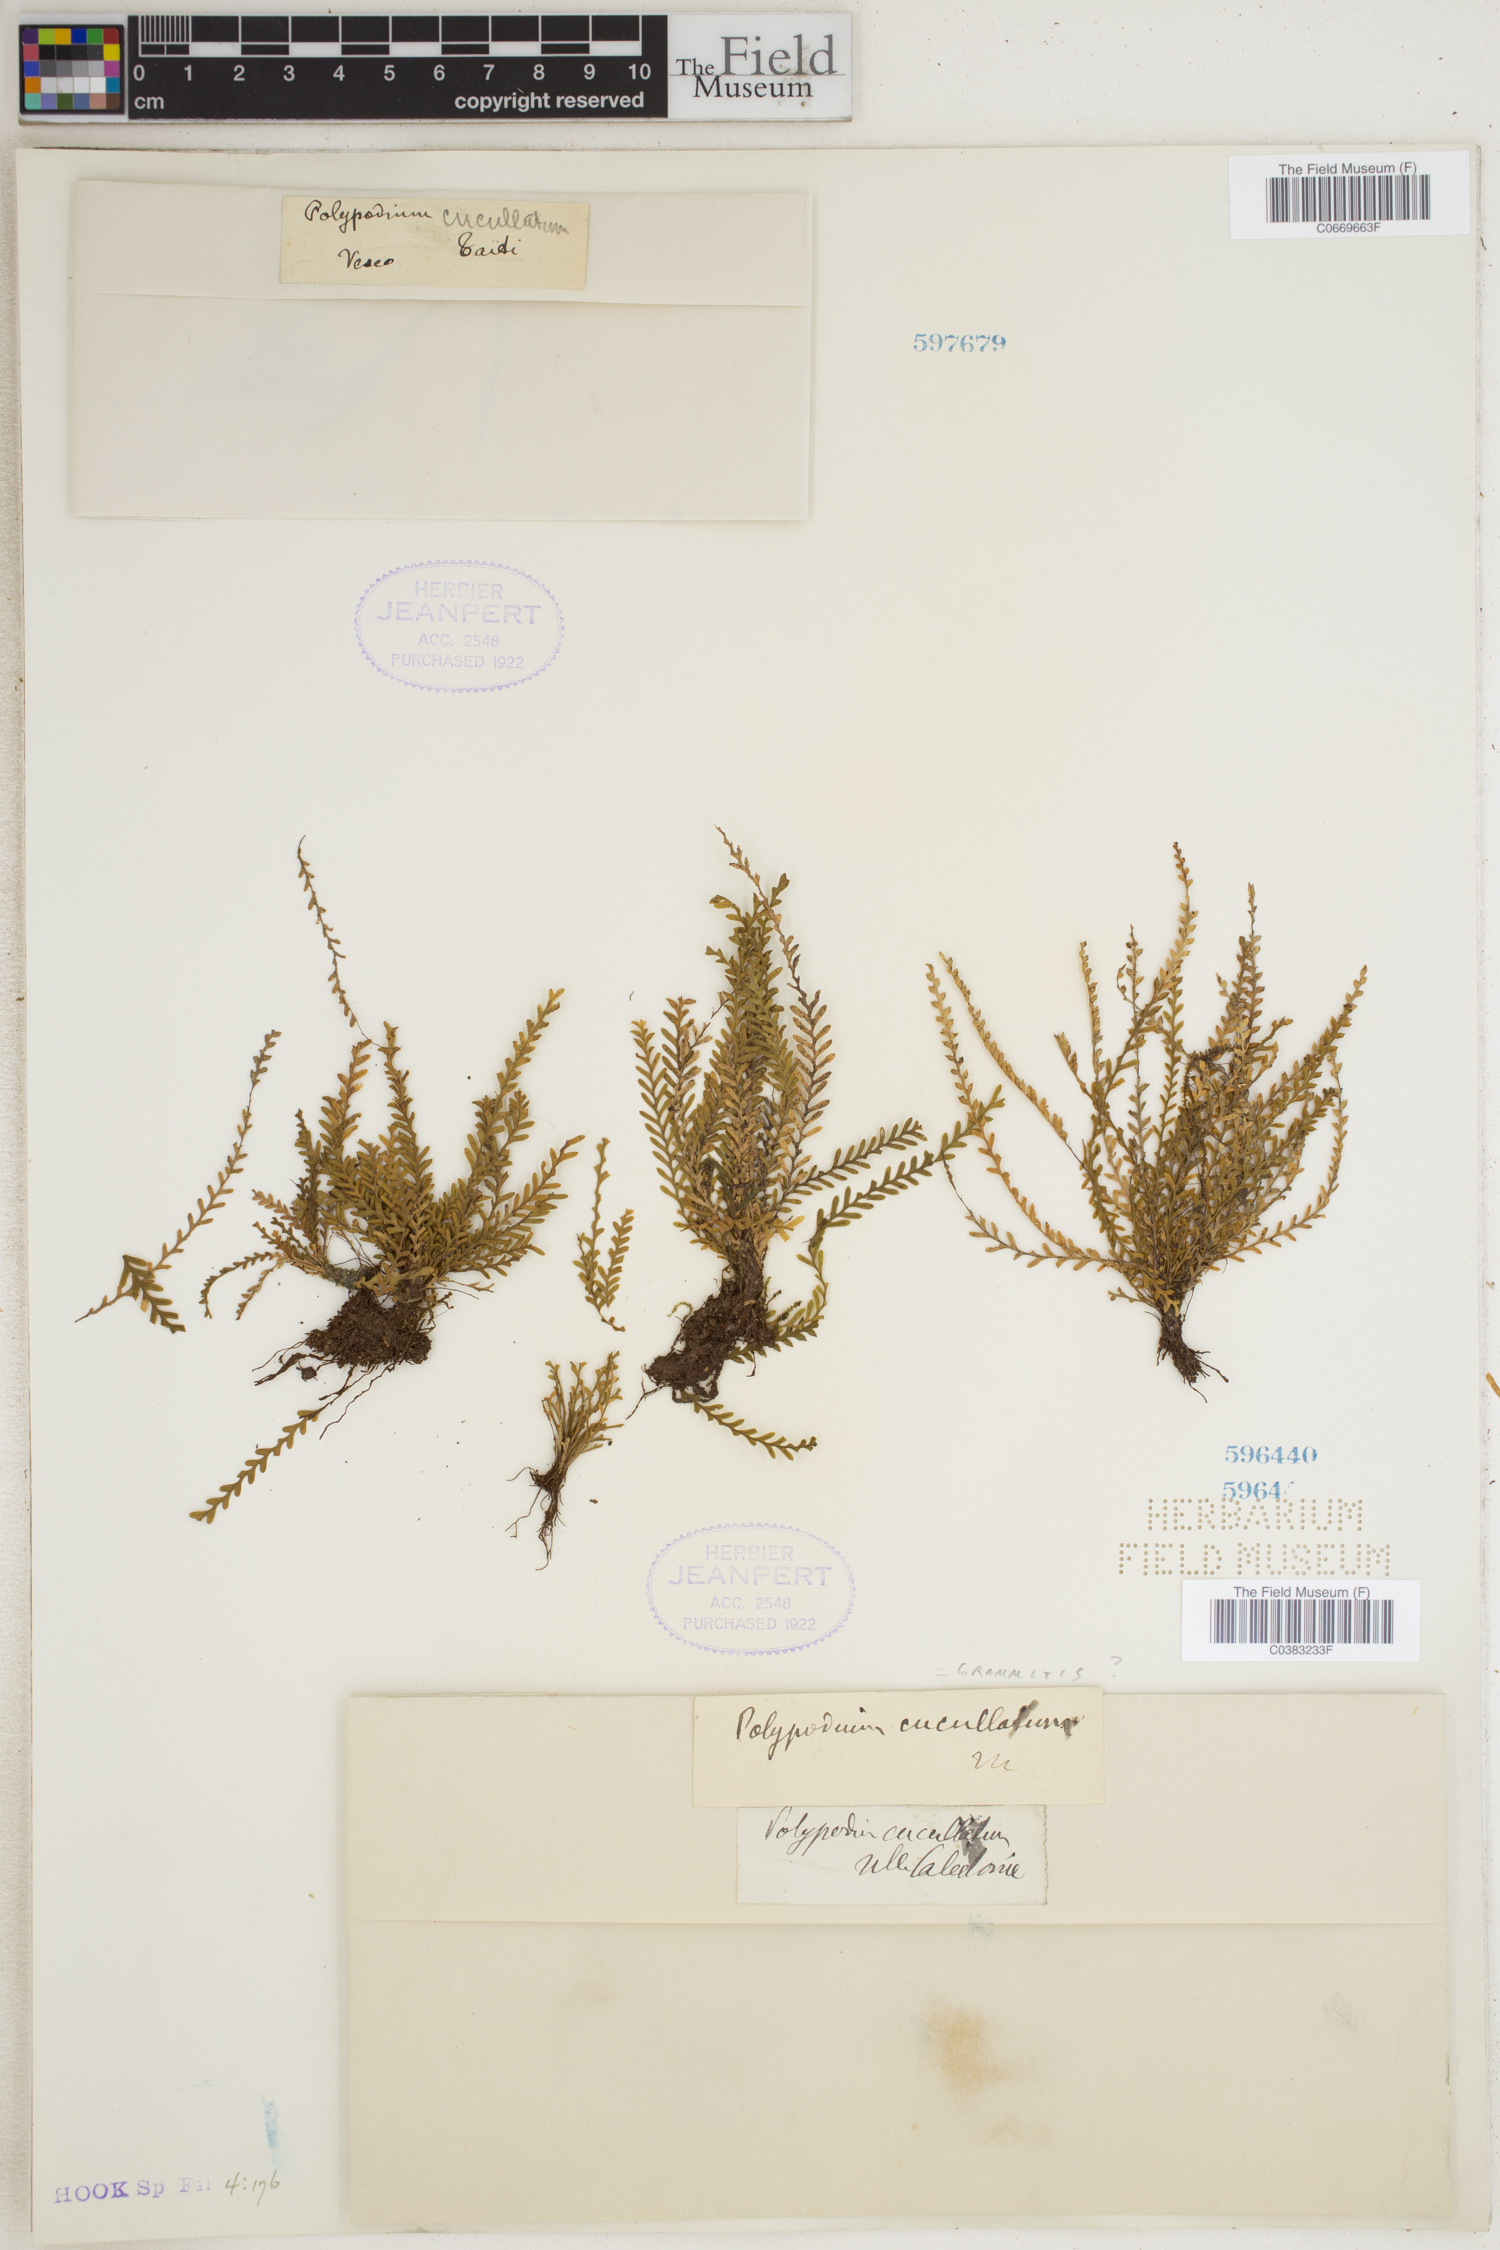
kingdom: Plantae
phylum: Tracheophyta
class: Polypodiopsida
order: Polypodiales
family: Polypodiaceae
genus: Calymmodon
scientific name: Calymmodon cucullatus
